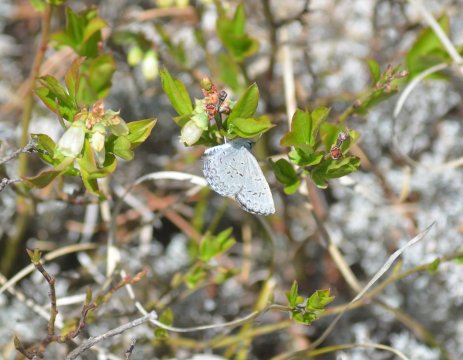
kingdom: Animalia
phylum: Arthropoda
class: Insecta
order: Lepidoptera
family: Lycaenidae
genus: Celastrina
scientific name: Celastrina lucia
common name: Northern Spring Azure
